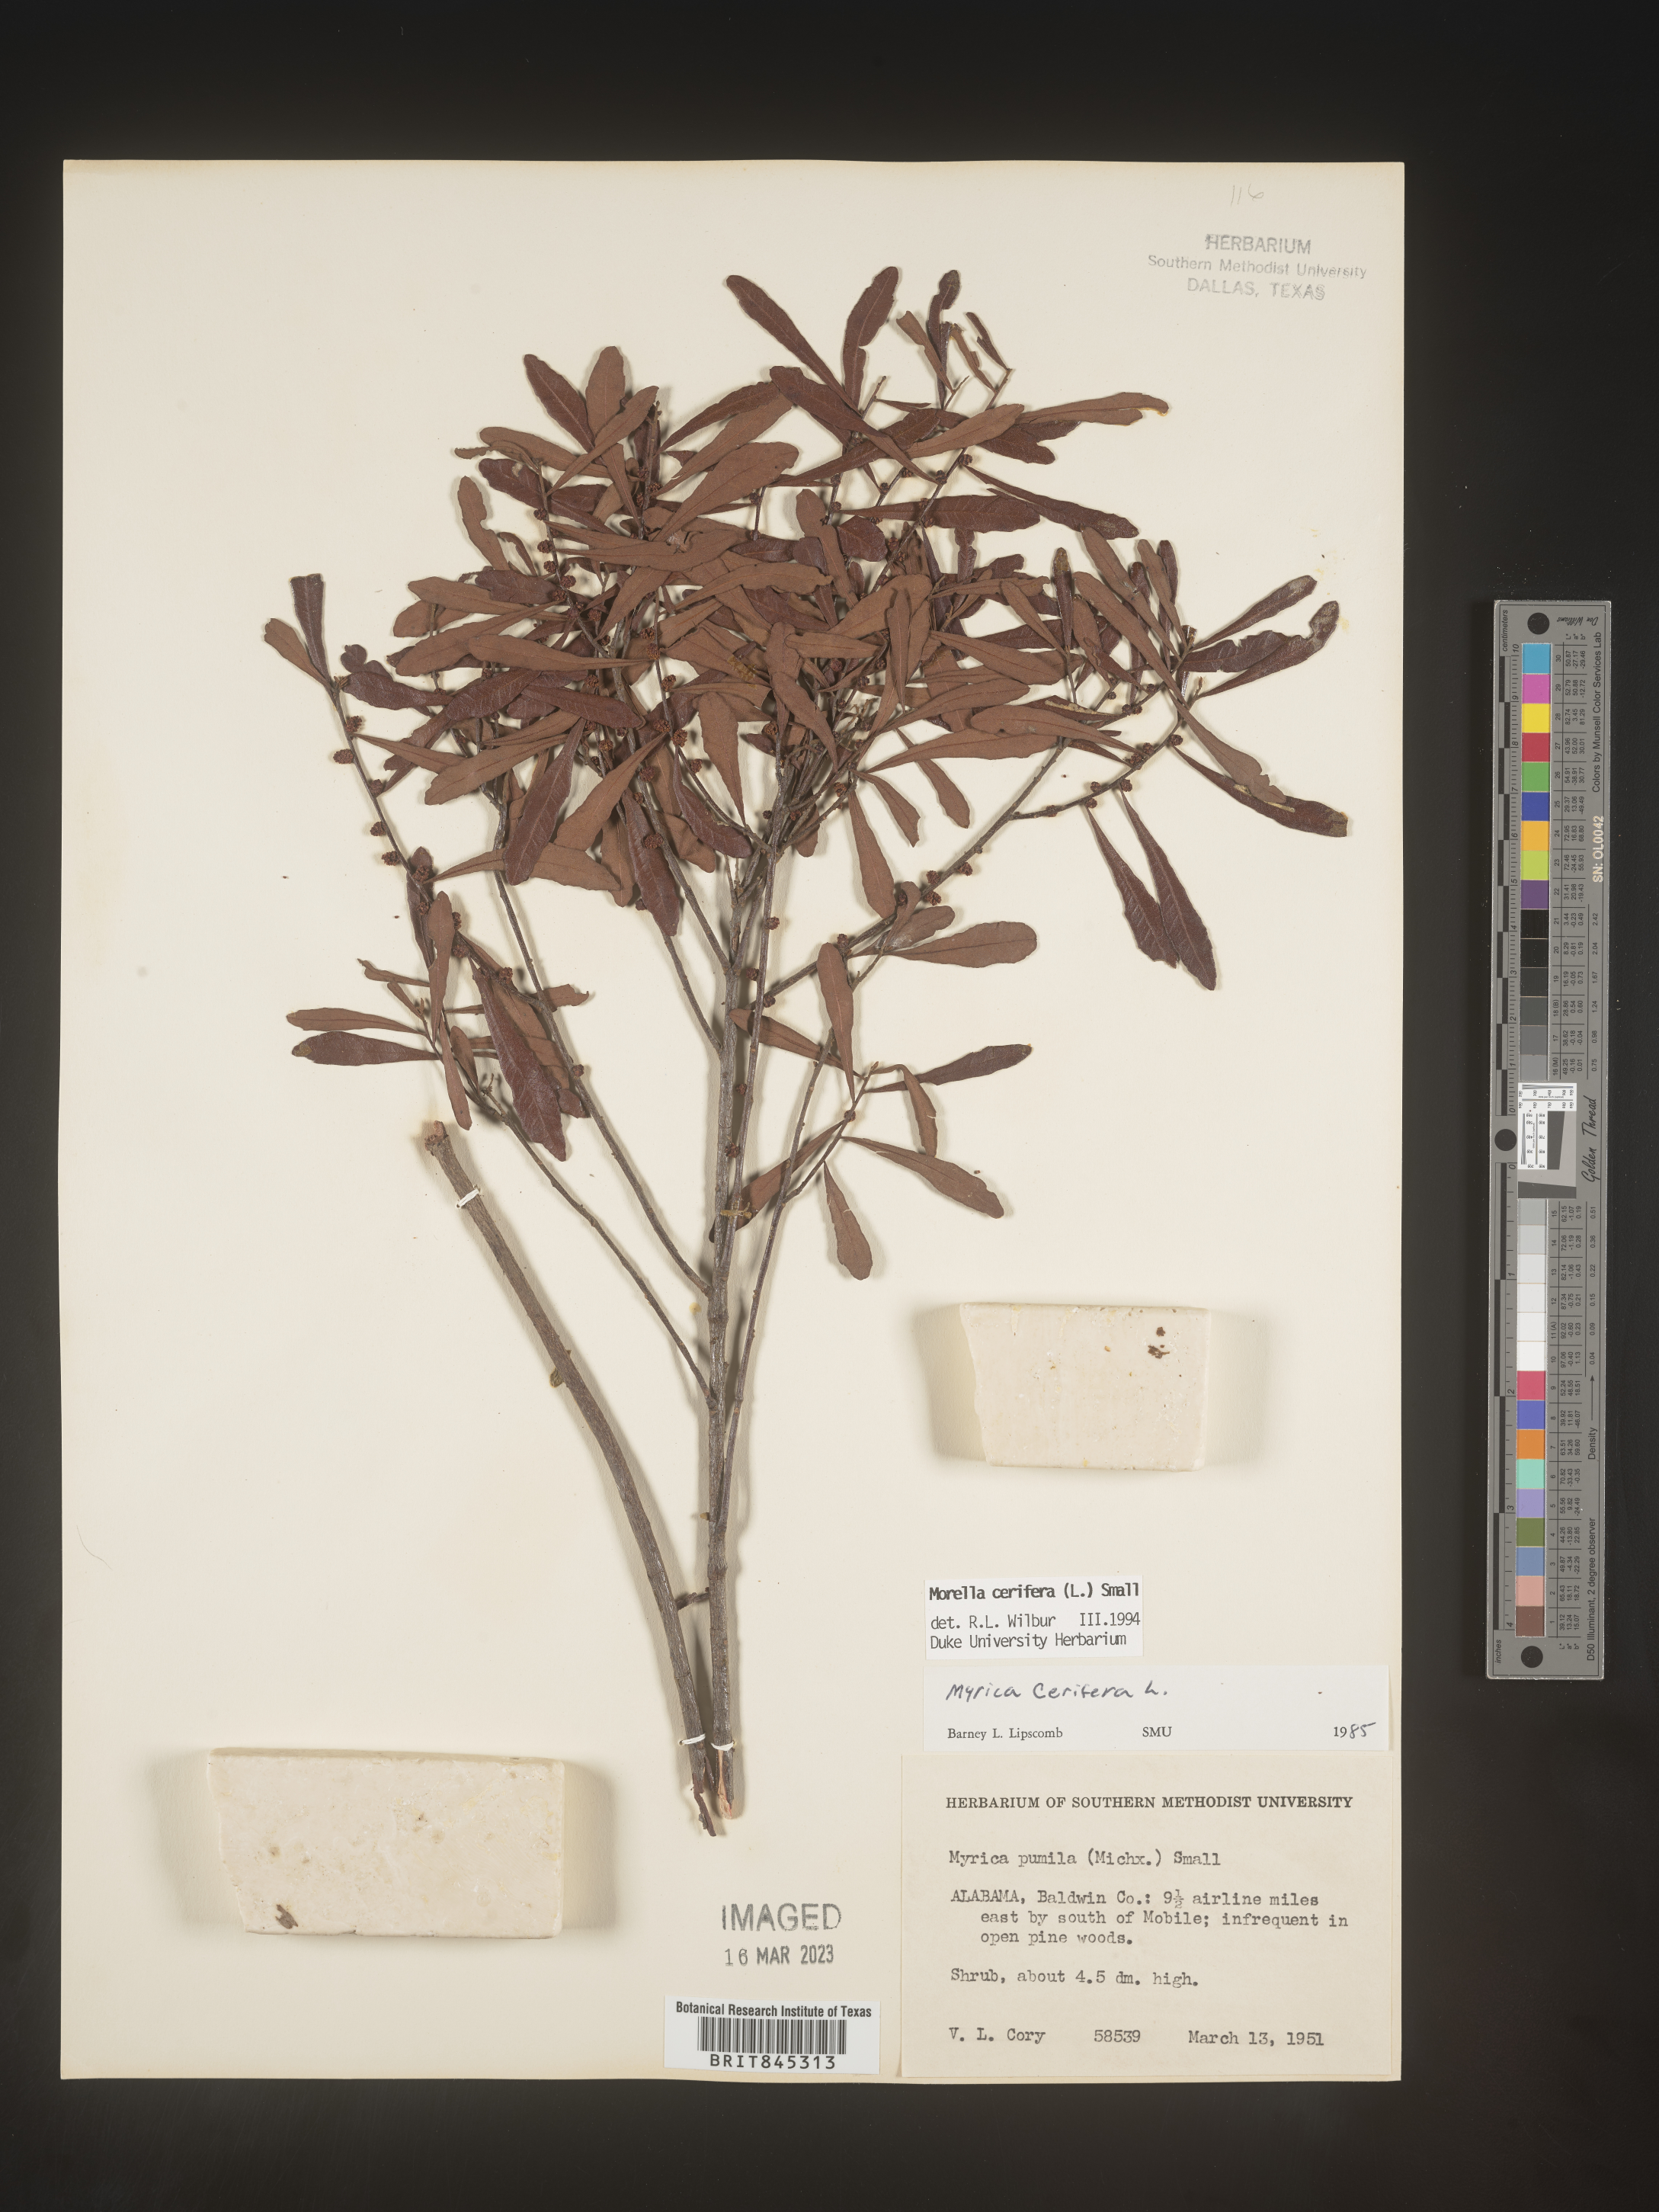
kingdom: Plantae
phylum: Tracheophyta
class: Magnoliopsida
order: Fagales
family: Myricaceae
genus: Morella
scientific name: Morella cerifera
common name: Wax myrtle
